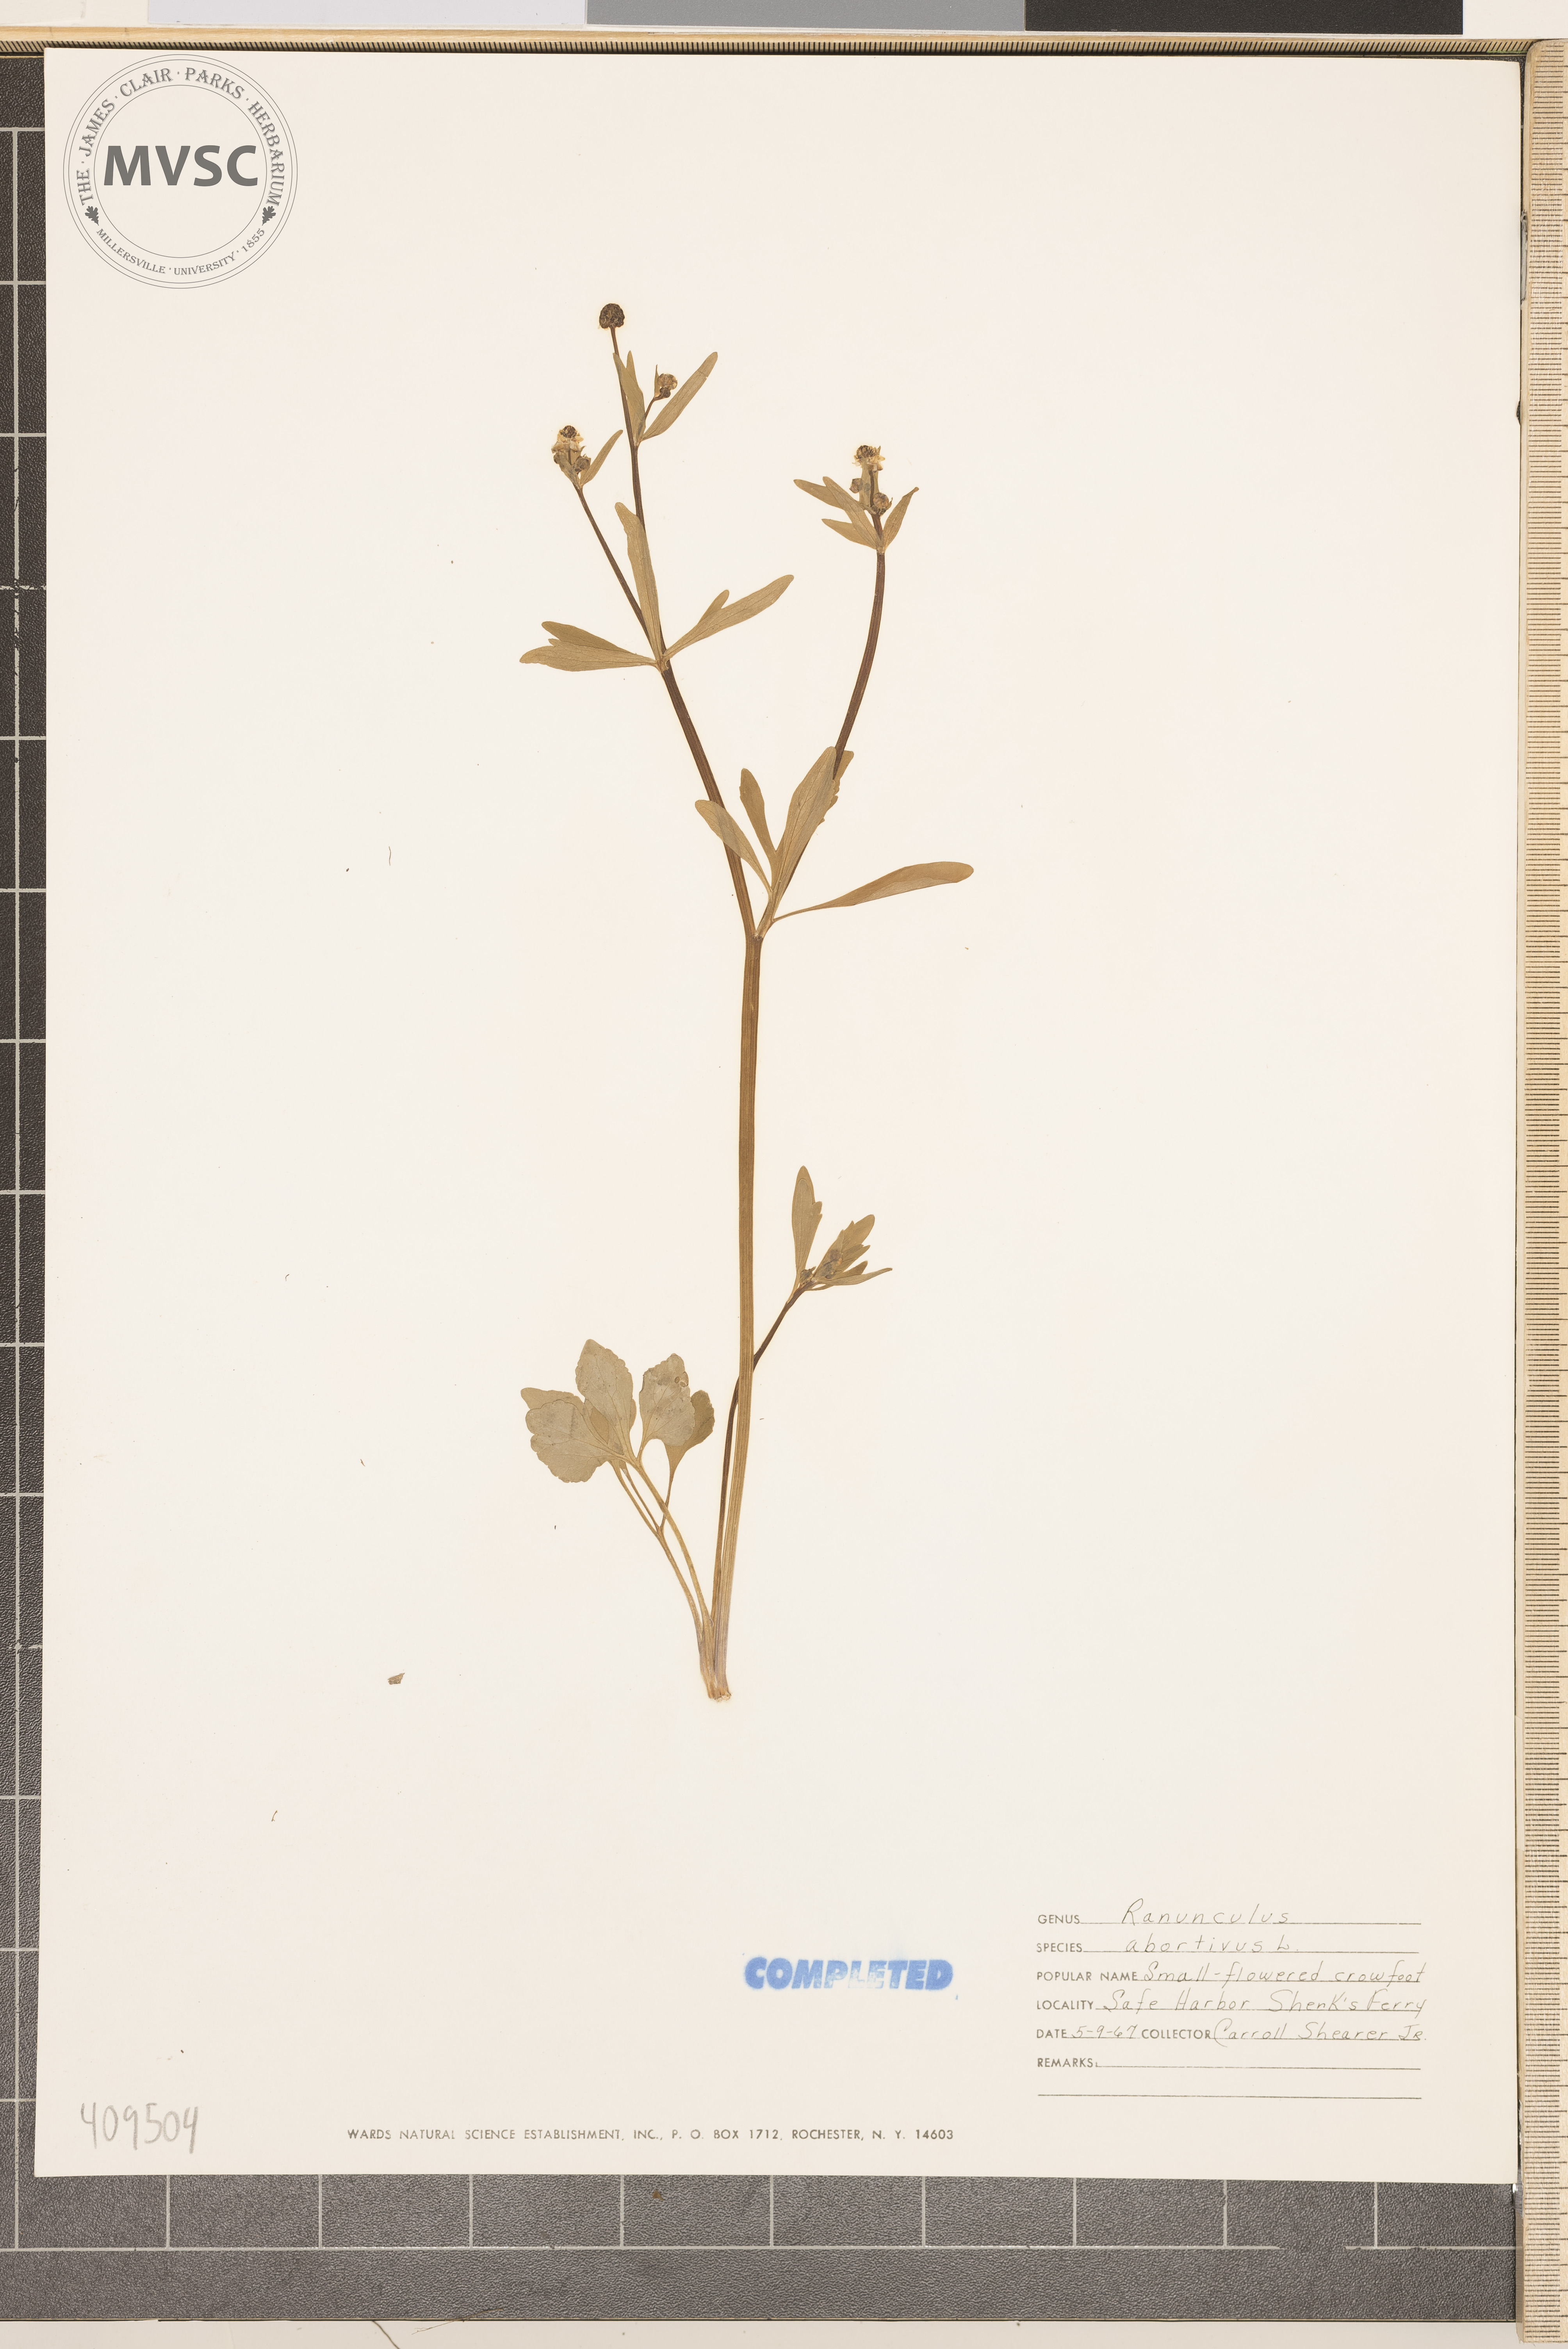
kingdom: Plantae
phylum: Tracheophyta
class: Magnoliopsida
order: Ranunculales
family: Ranunculaceae
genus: Ranunculus
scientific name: Ranunculus abortivus
